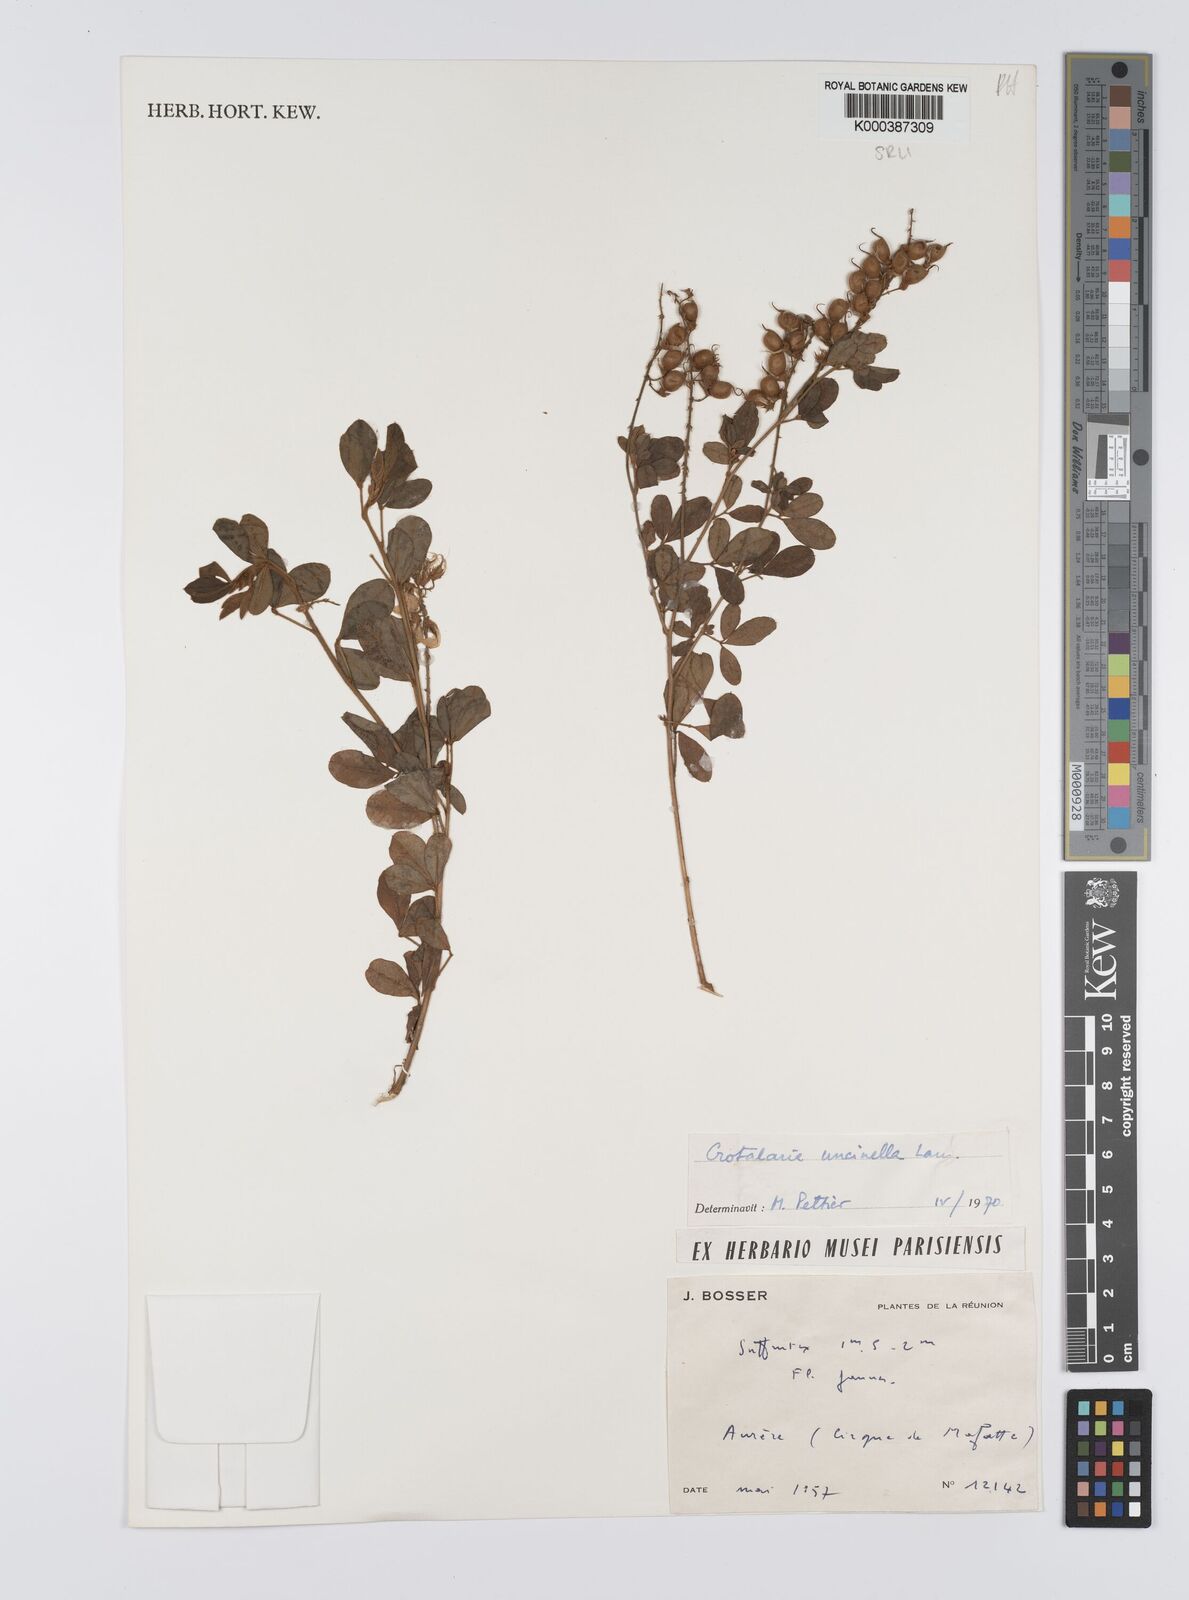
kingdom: Plantae
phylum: Tracheophyta
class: Magnoliopsida
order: Fabales
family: Fabaceae
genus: Crotalaria
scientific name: Crotalaria uncinella
